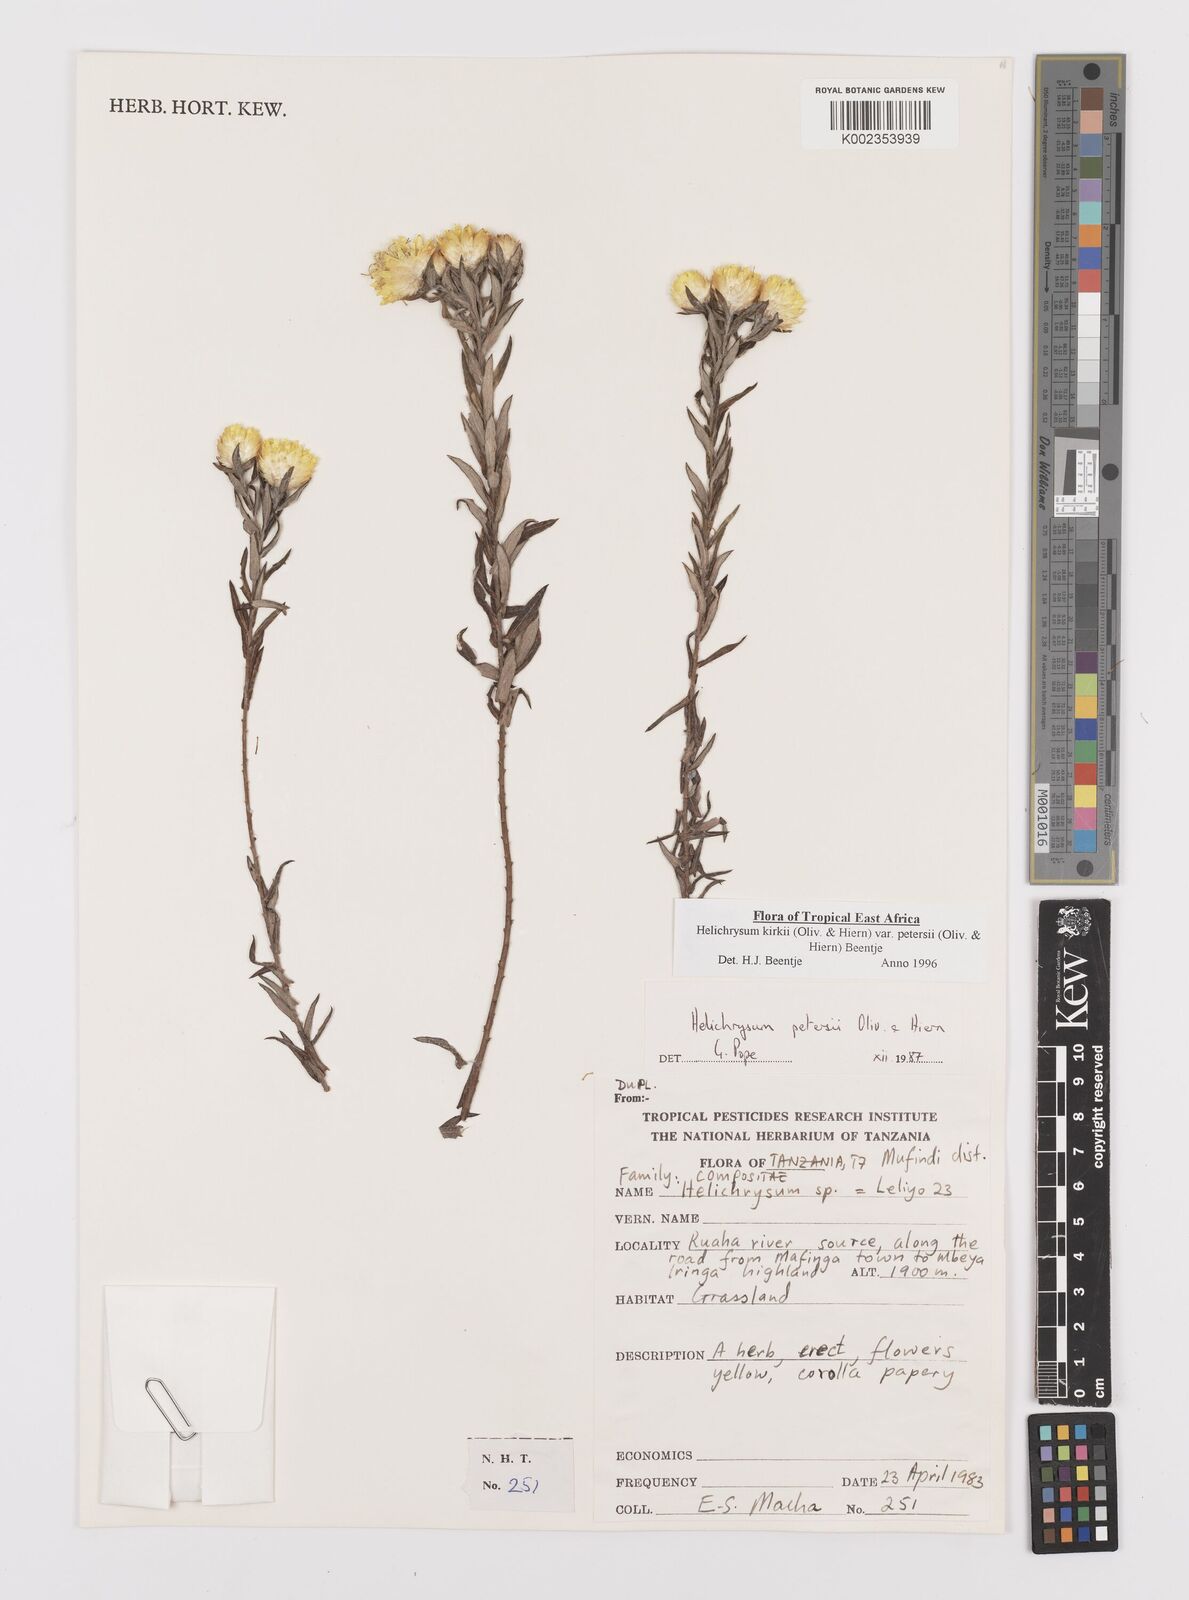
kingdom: Plantae
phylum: Tracheophyta
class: Magnoliopsida
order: Asterales
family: Asteraceae
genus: Helichrysum
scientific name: Helichrysum kirkii
